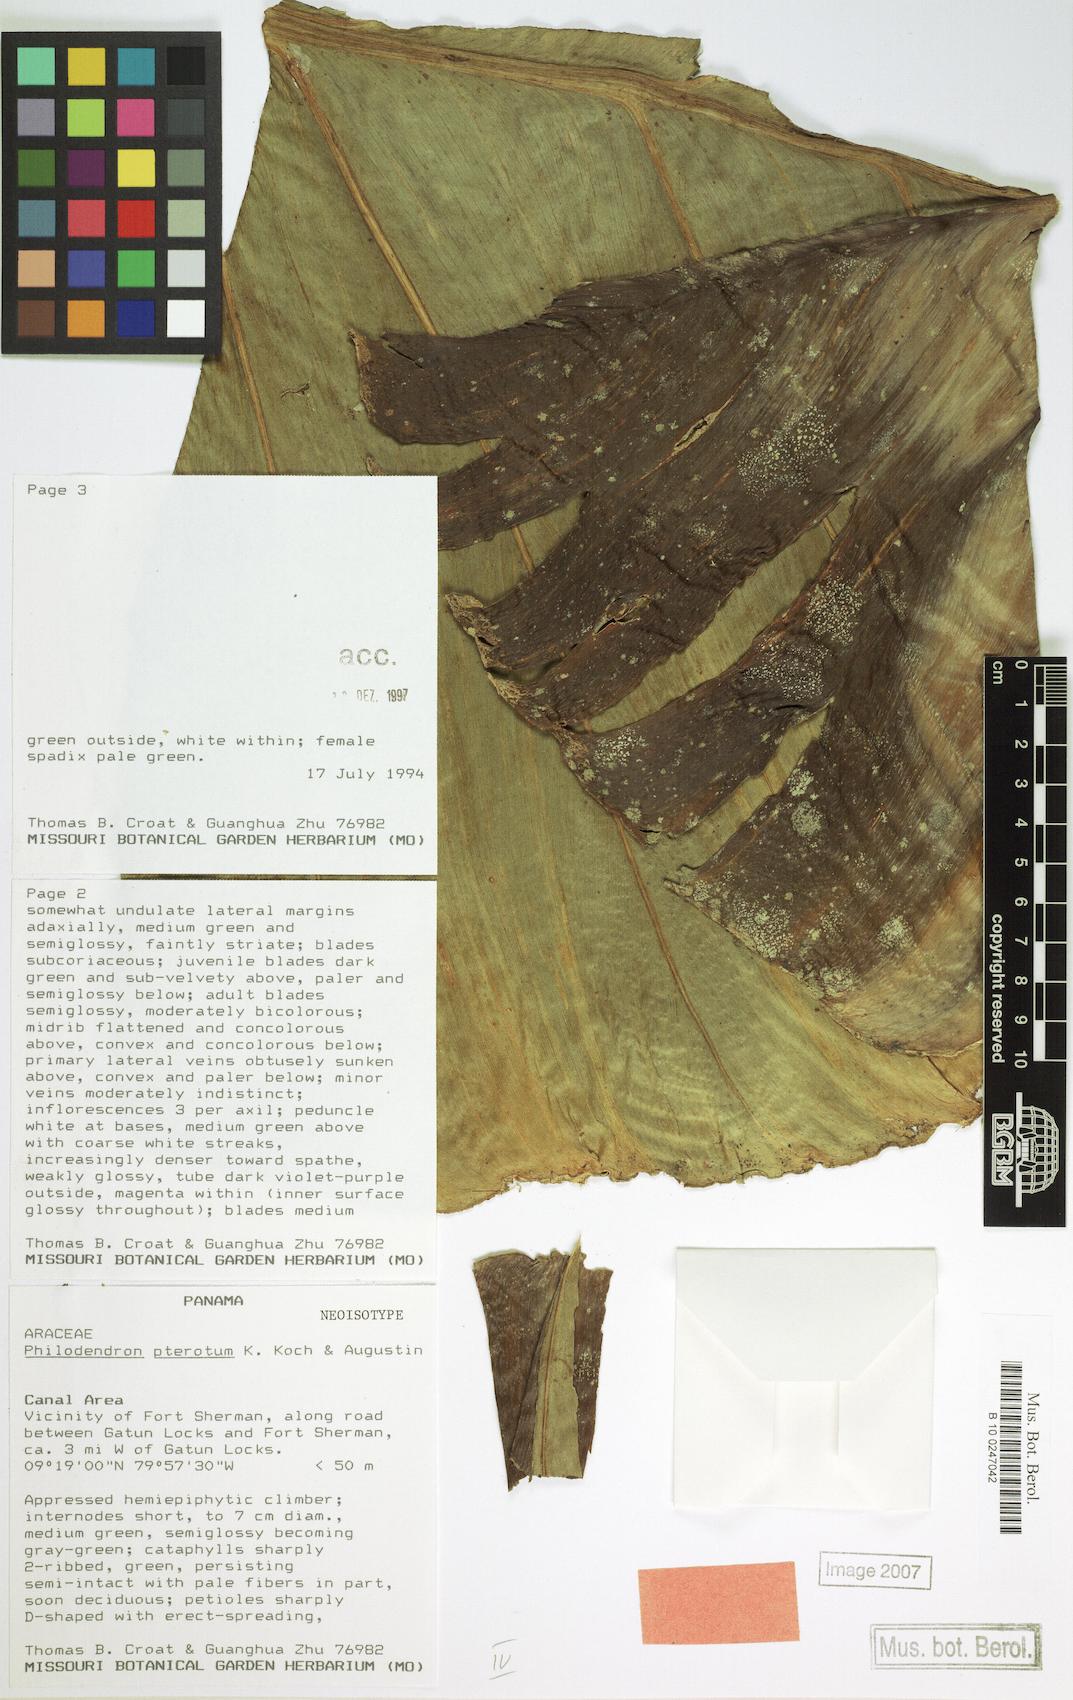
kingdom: Plantae
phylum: Tracheophyta
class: Liliopsida
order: Alismatales
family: Araceae
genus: Philodendron
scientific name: Philodendron pterotum
